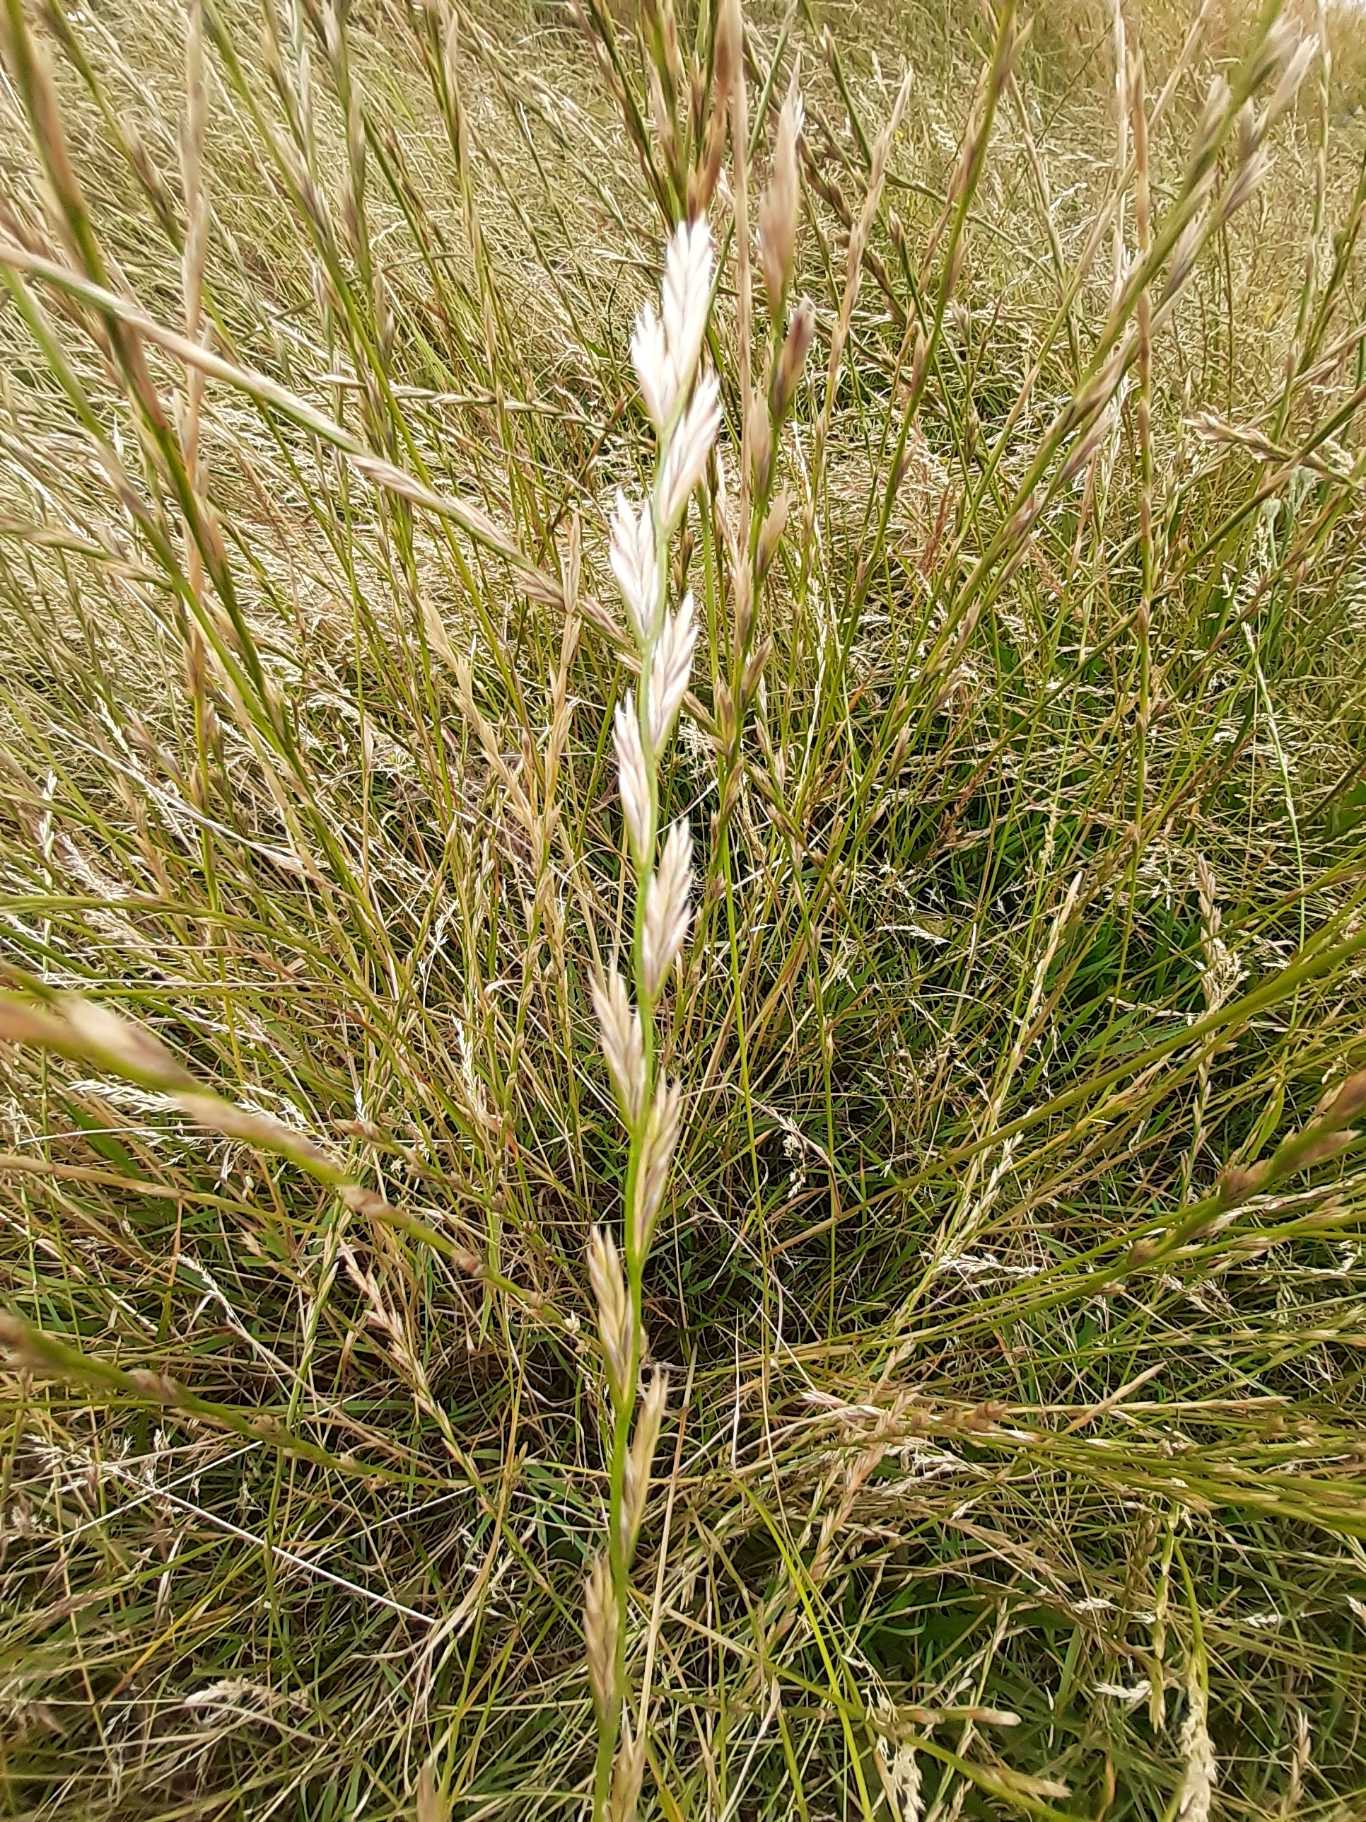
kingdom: Plantae
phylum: Tracheophyta
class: Liliopsida
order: Poales
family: Poaceae
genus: Lolium
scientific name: Lolium perenne
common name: Almindelig rajgræs
